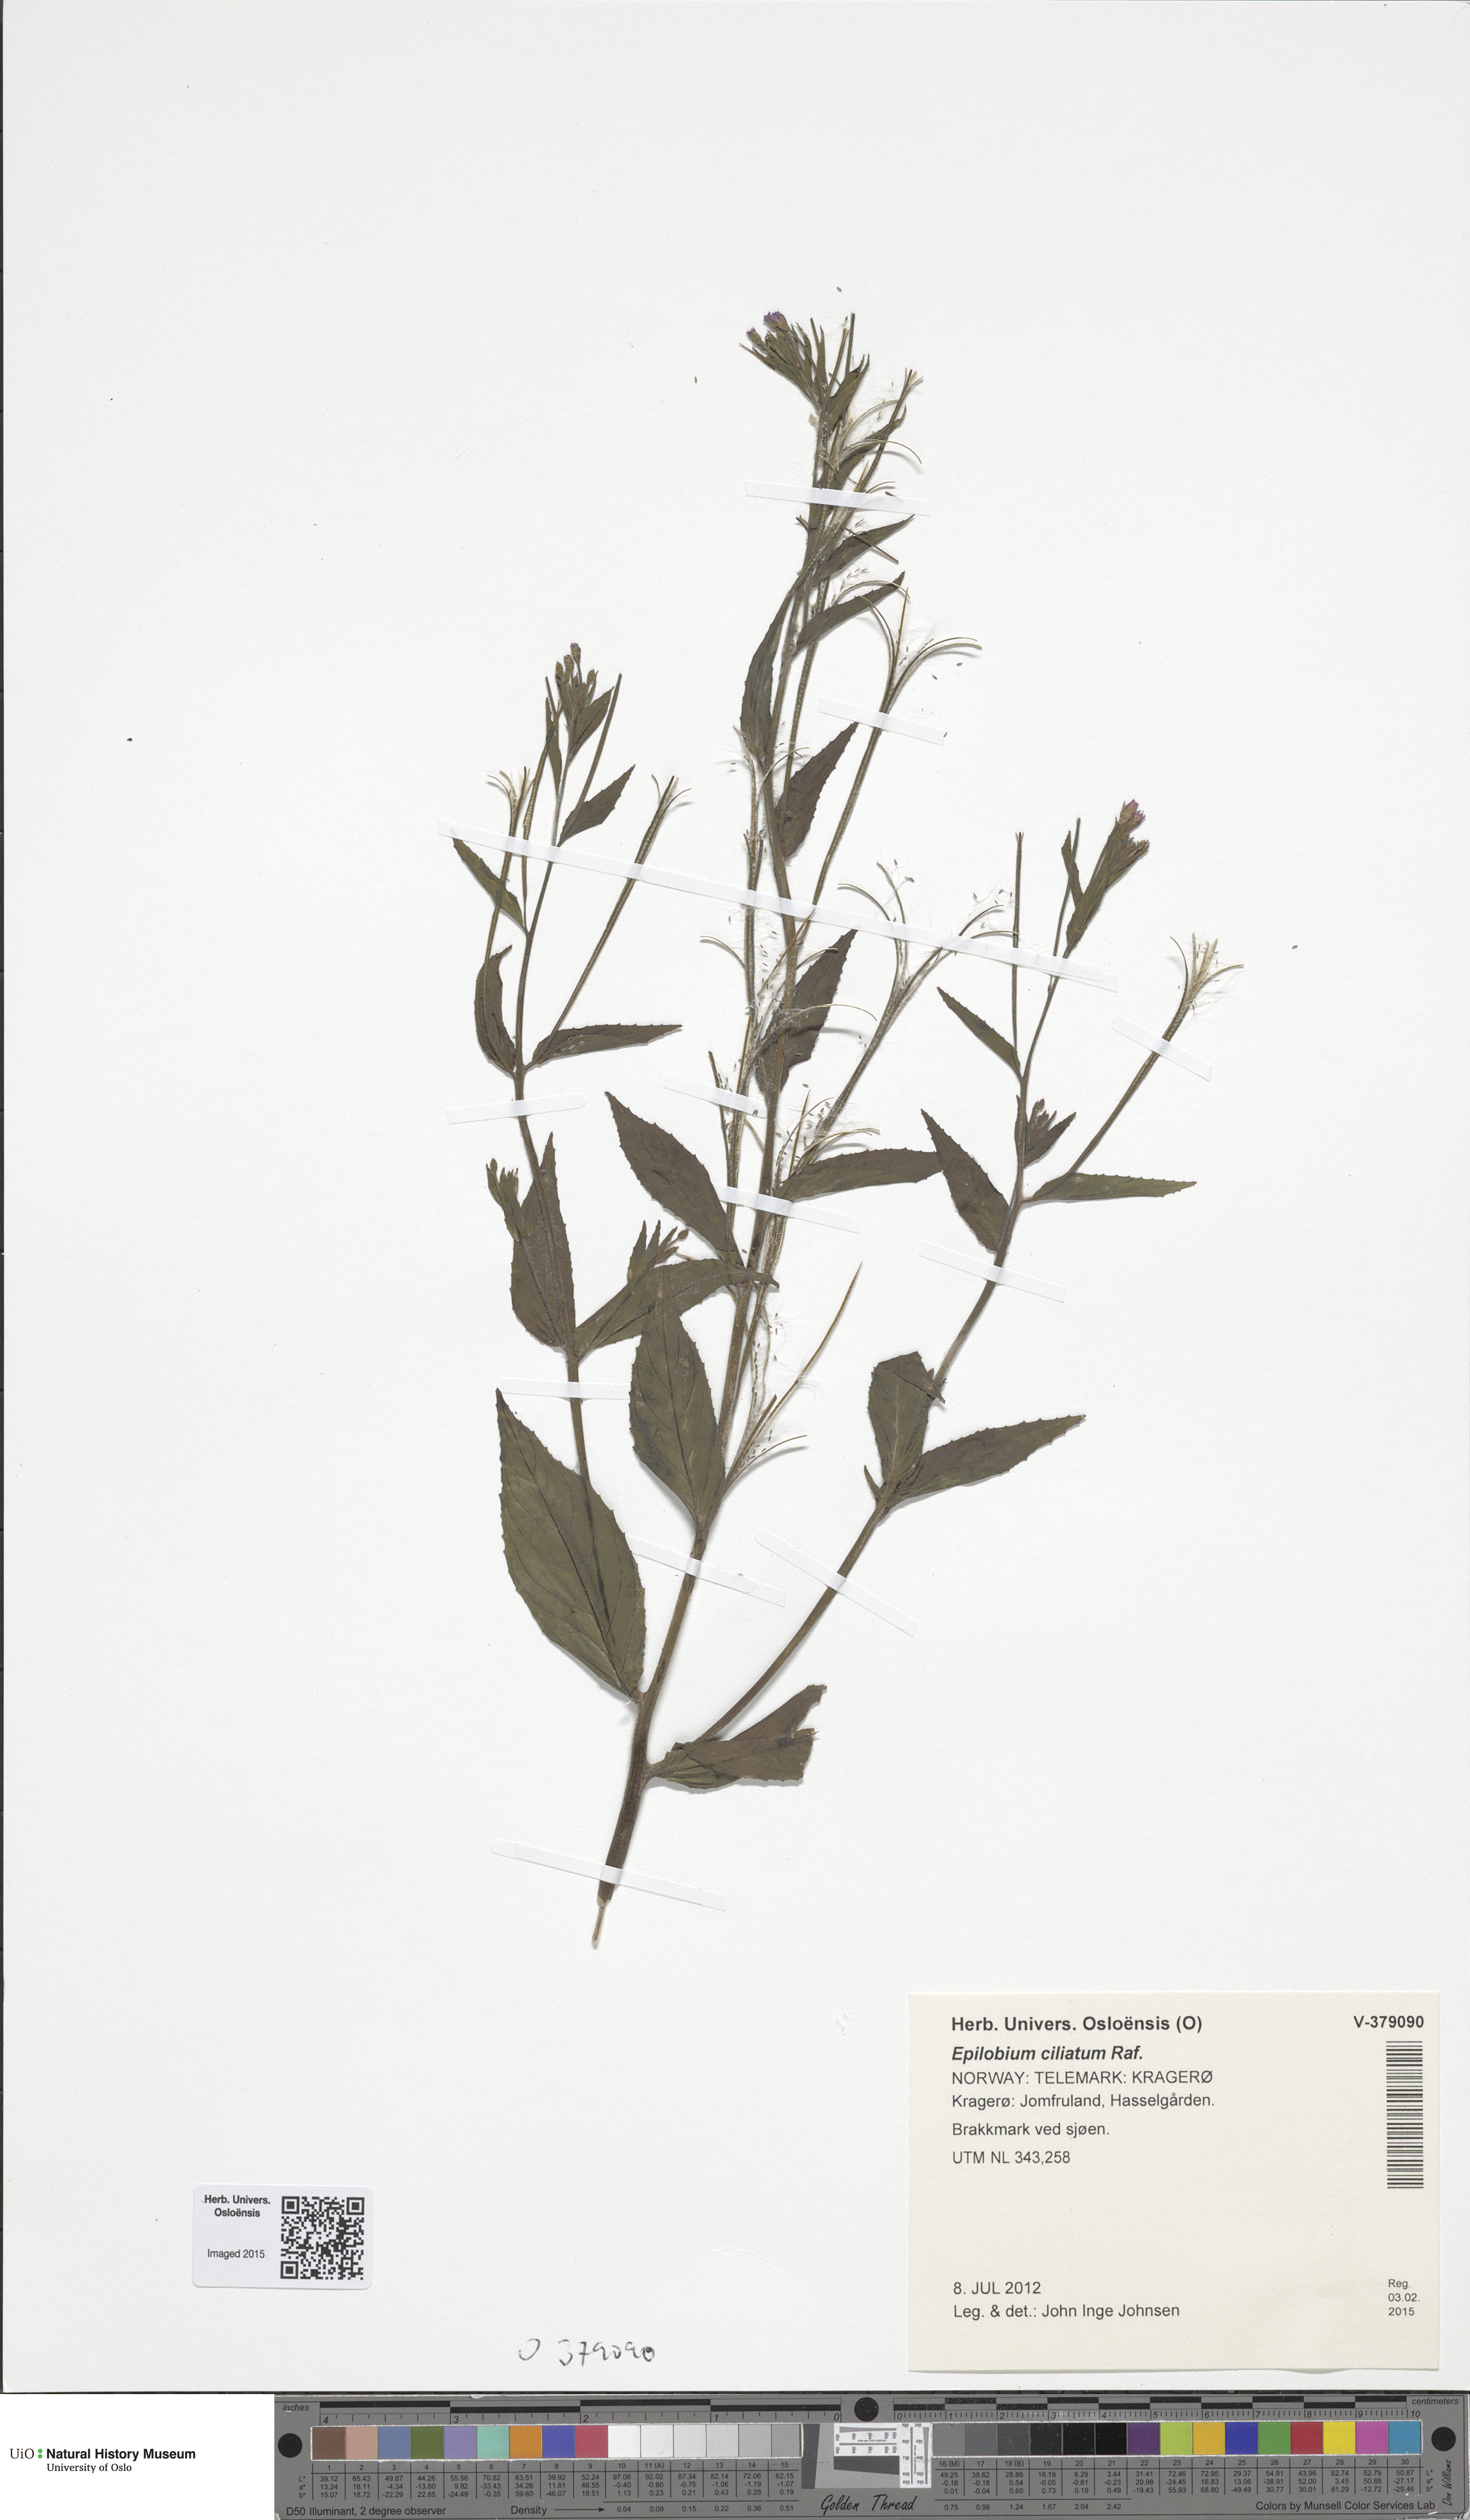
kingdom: Plantae
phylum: Tracheophyta
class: Magnoliopsida
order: Myrtales
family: Onagraceae
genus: Epilobium
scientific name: Epilobium ciliatum
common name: American willowherb
